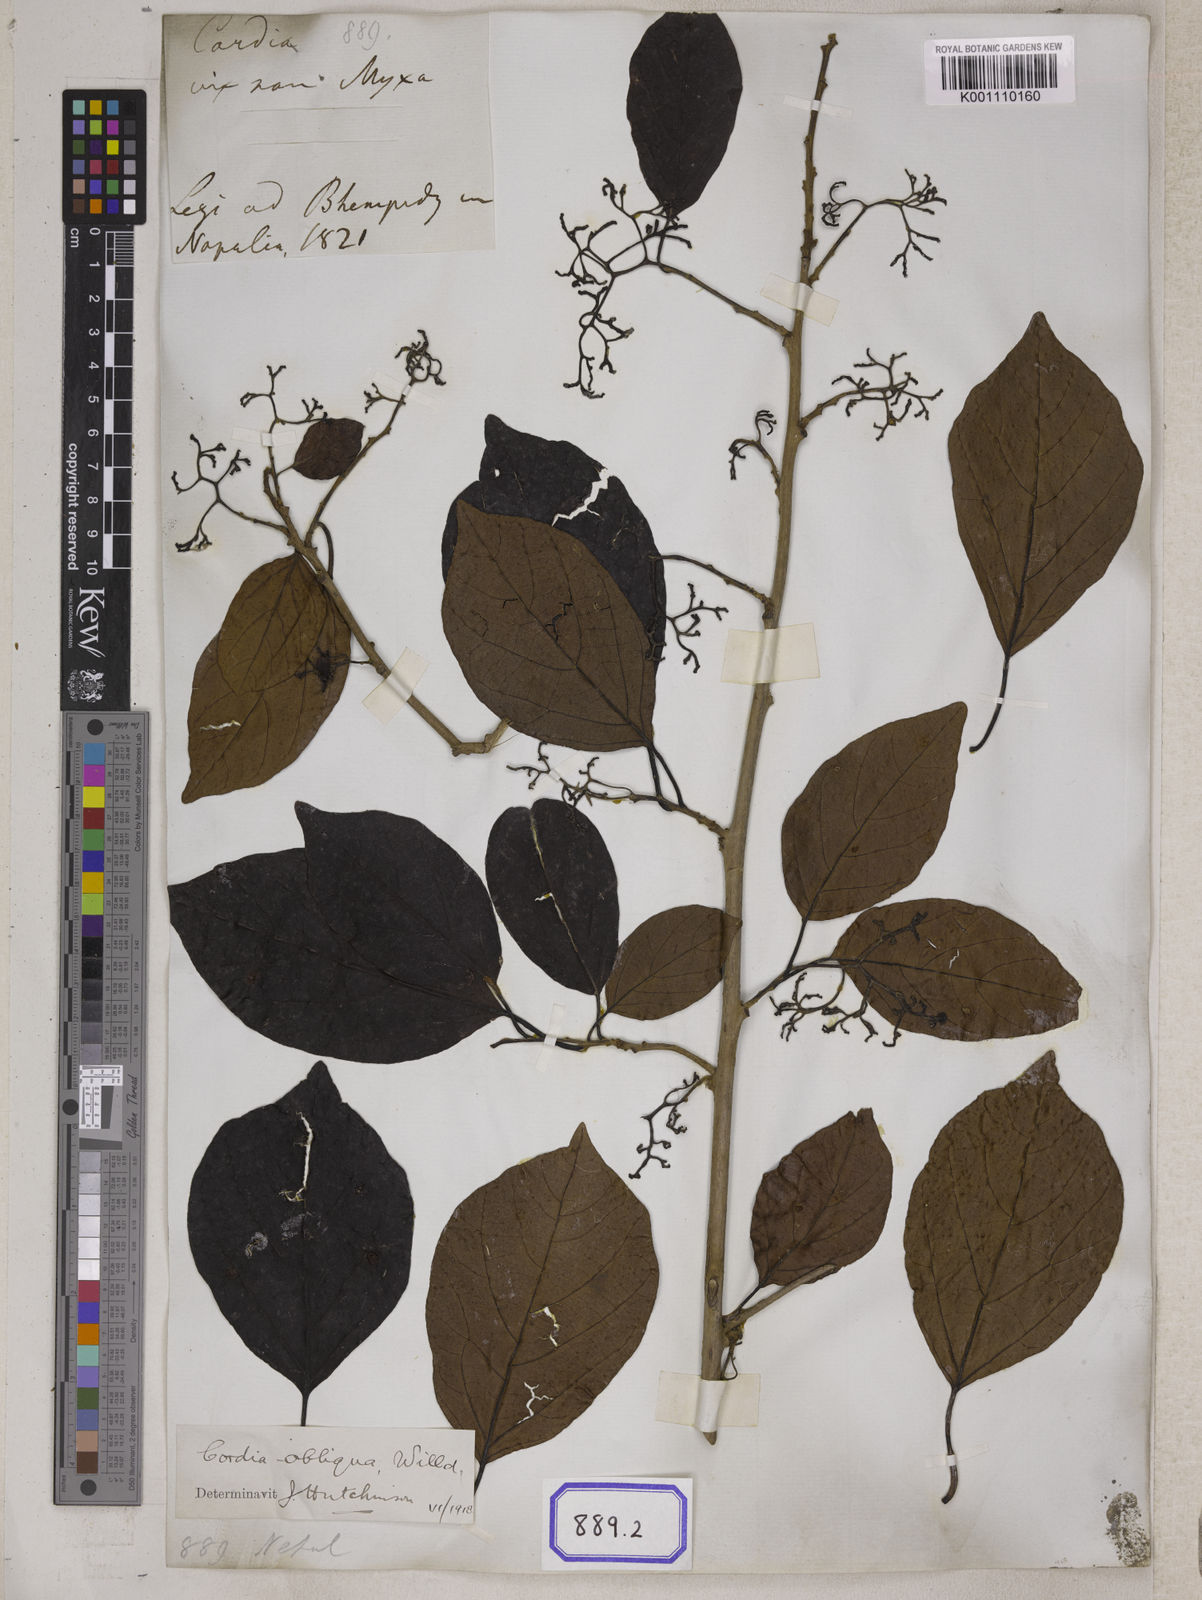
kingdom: Plantae
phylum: Tracheophyta
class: Magnoliopsida
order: Boraginales
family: Cordiaceae
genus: Cordia
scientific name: Cordia myxa
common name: Assyrian plum
